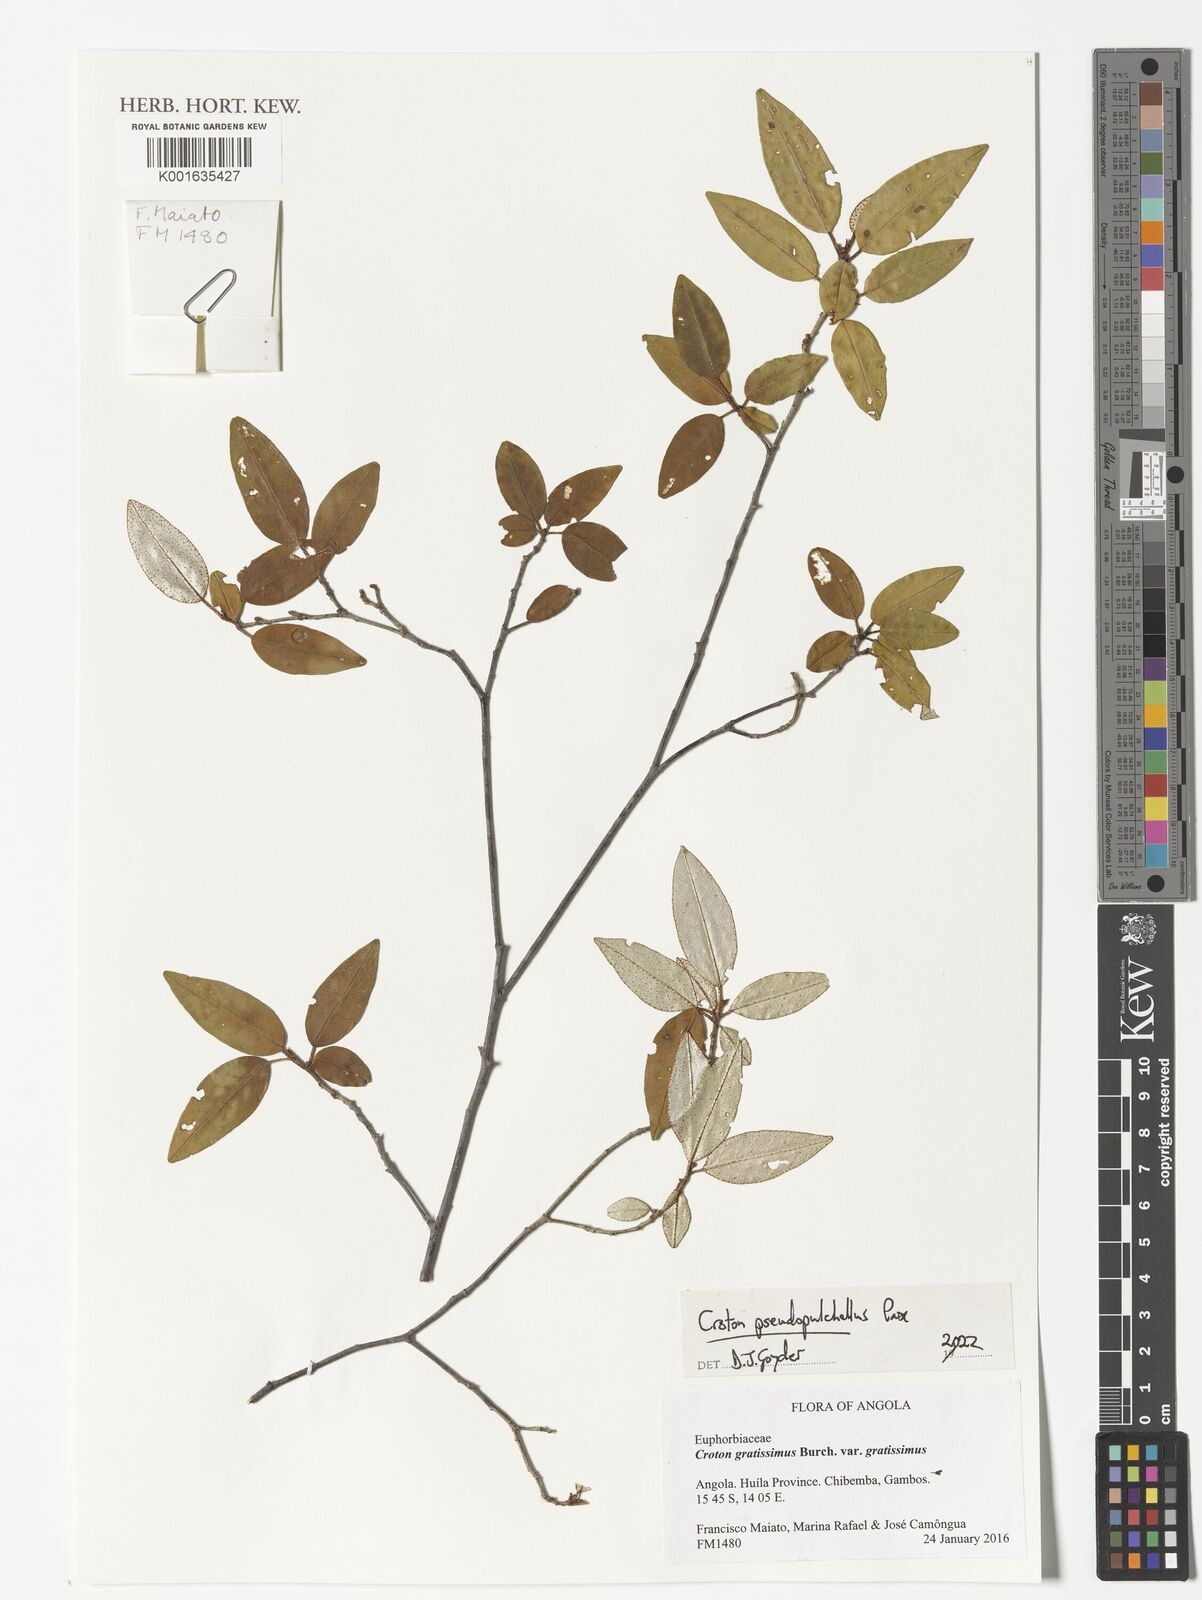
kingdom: Plantae
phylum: Tracheophyta
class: Magnoliopsida
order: Malpighiales
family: Euphorbiaceae
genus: Croton
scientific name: Croton pseudopulchellus
